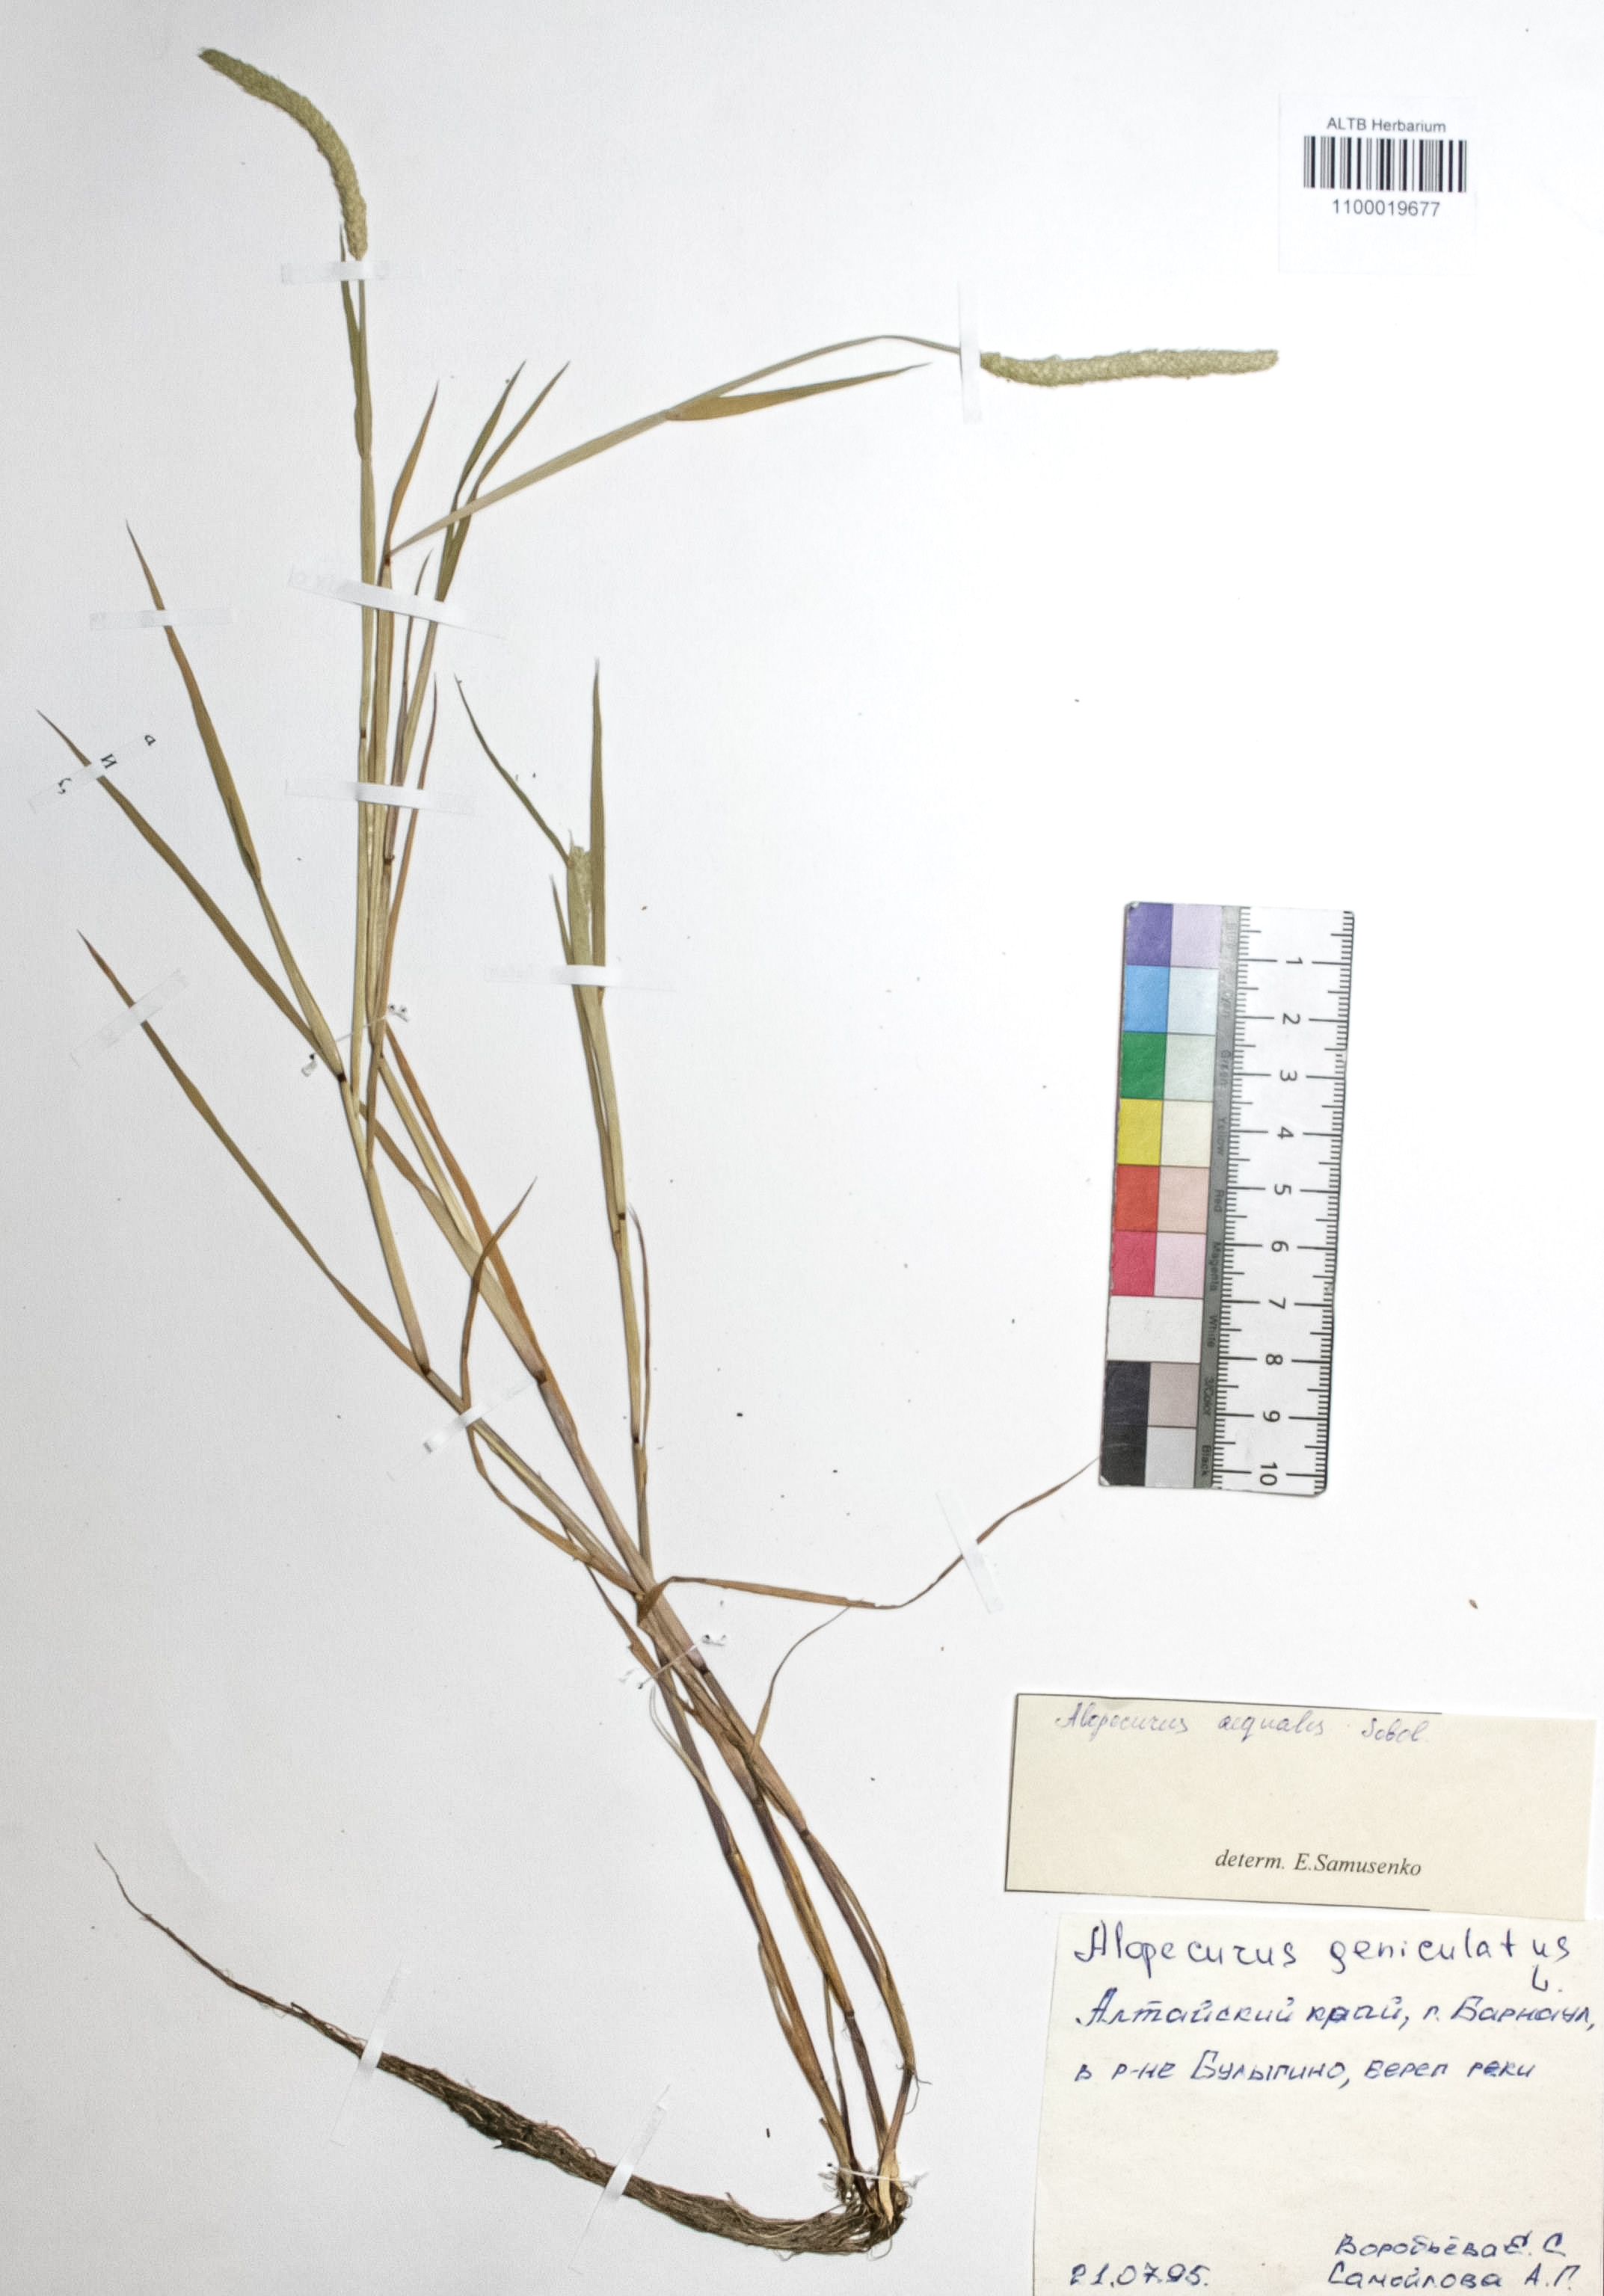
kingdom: Plantae
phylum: Tracheophyta
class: Liliopsida
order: Poales
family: Poaceae
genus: Alopecurus
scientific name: Alopecurus aequalis
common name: Orange foxtail
